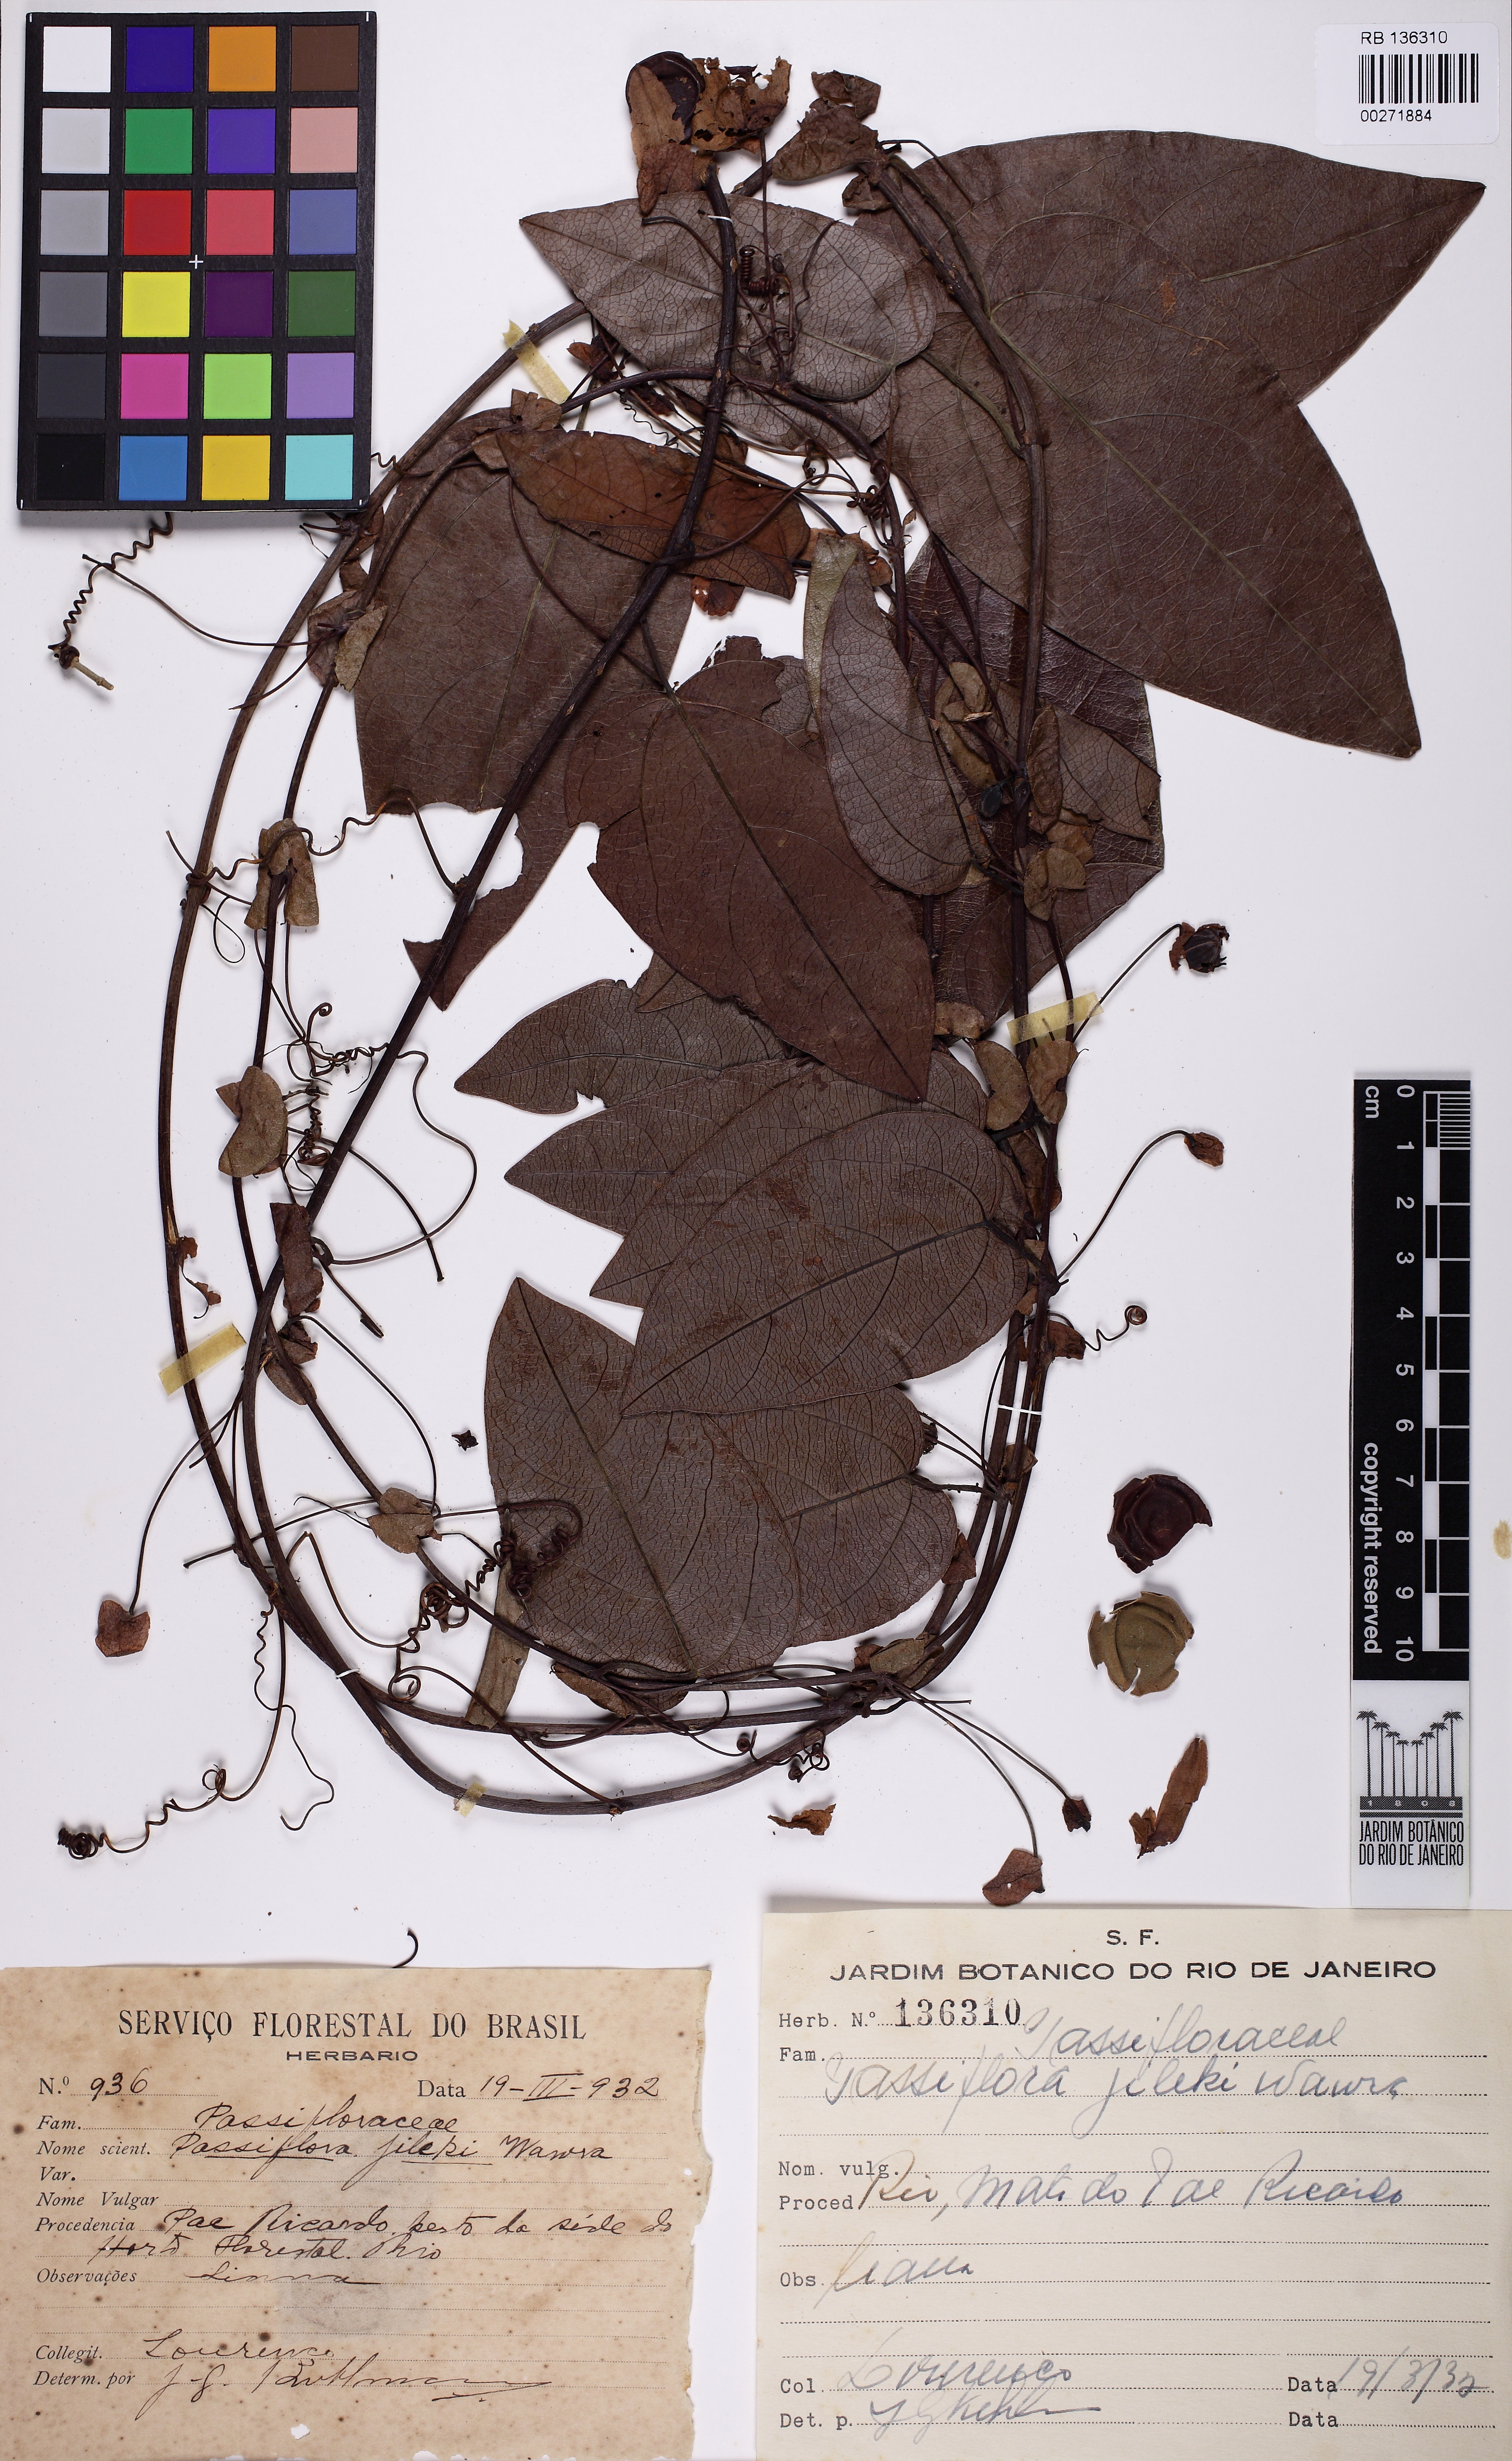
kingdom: Plantae
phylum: Tracheophyta
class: Magnoliopsida
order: Malpighiales
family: Passifloraceae
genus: Passiflora
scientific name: Passiflora mediterranea
